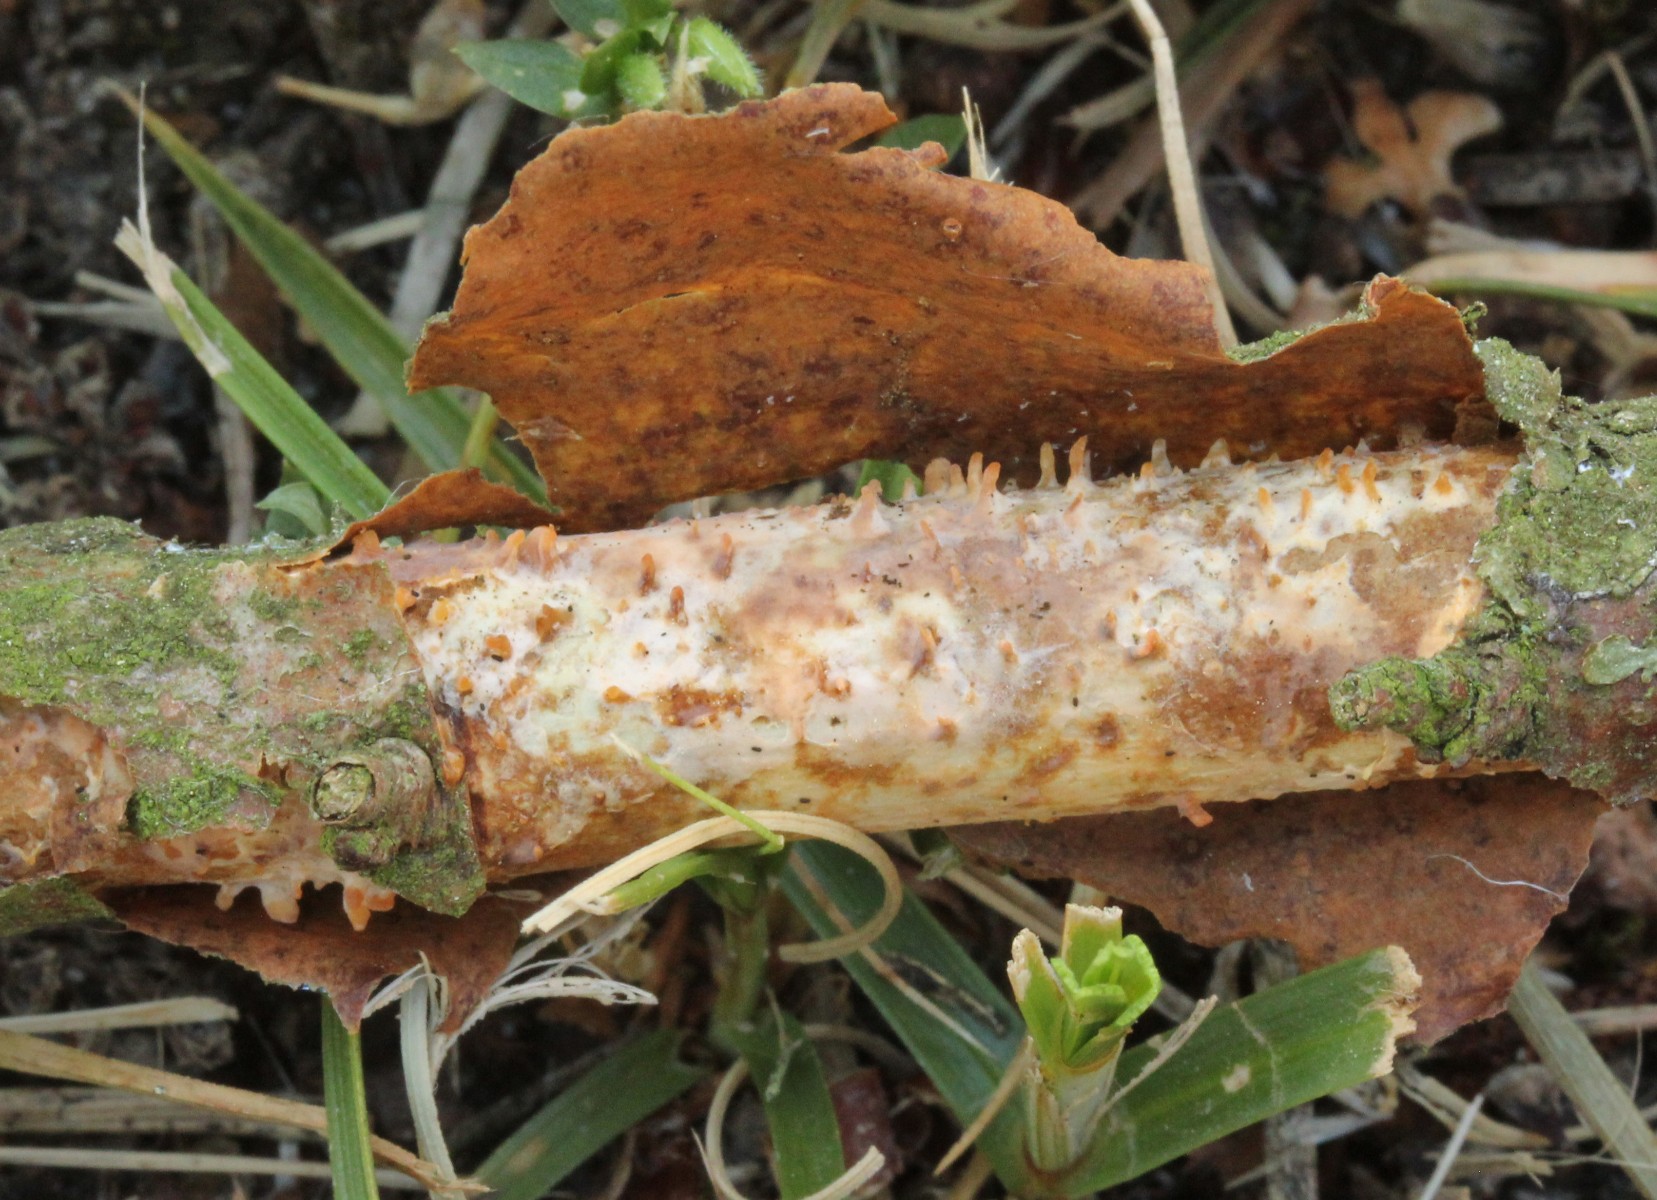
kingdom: Fungi
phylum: Basidiomycota
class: Agaricomycetes
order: Russulales
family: Peniophoraceae
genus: Peniophora
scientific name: Peniophora laeta
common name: tandet voksskind
